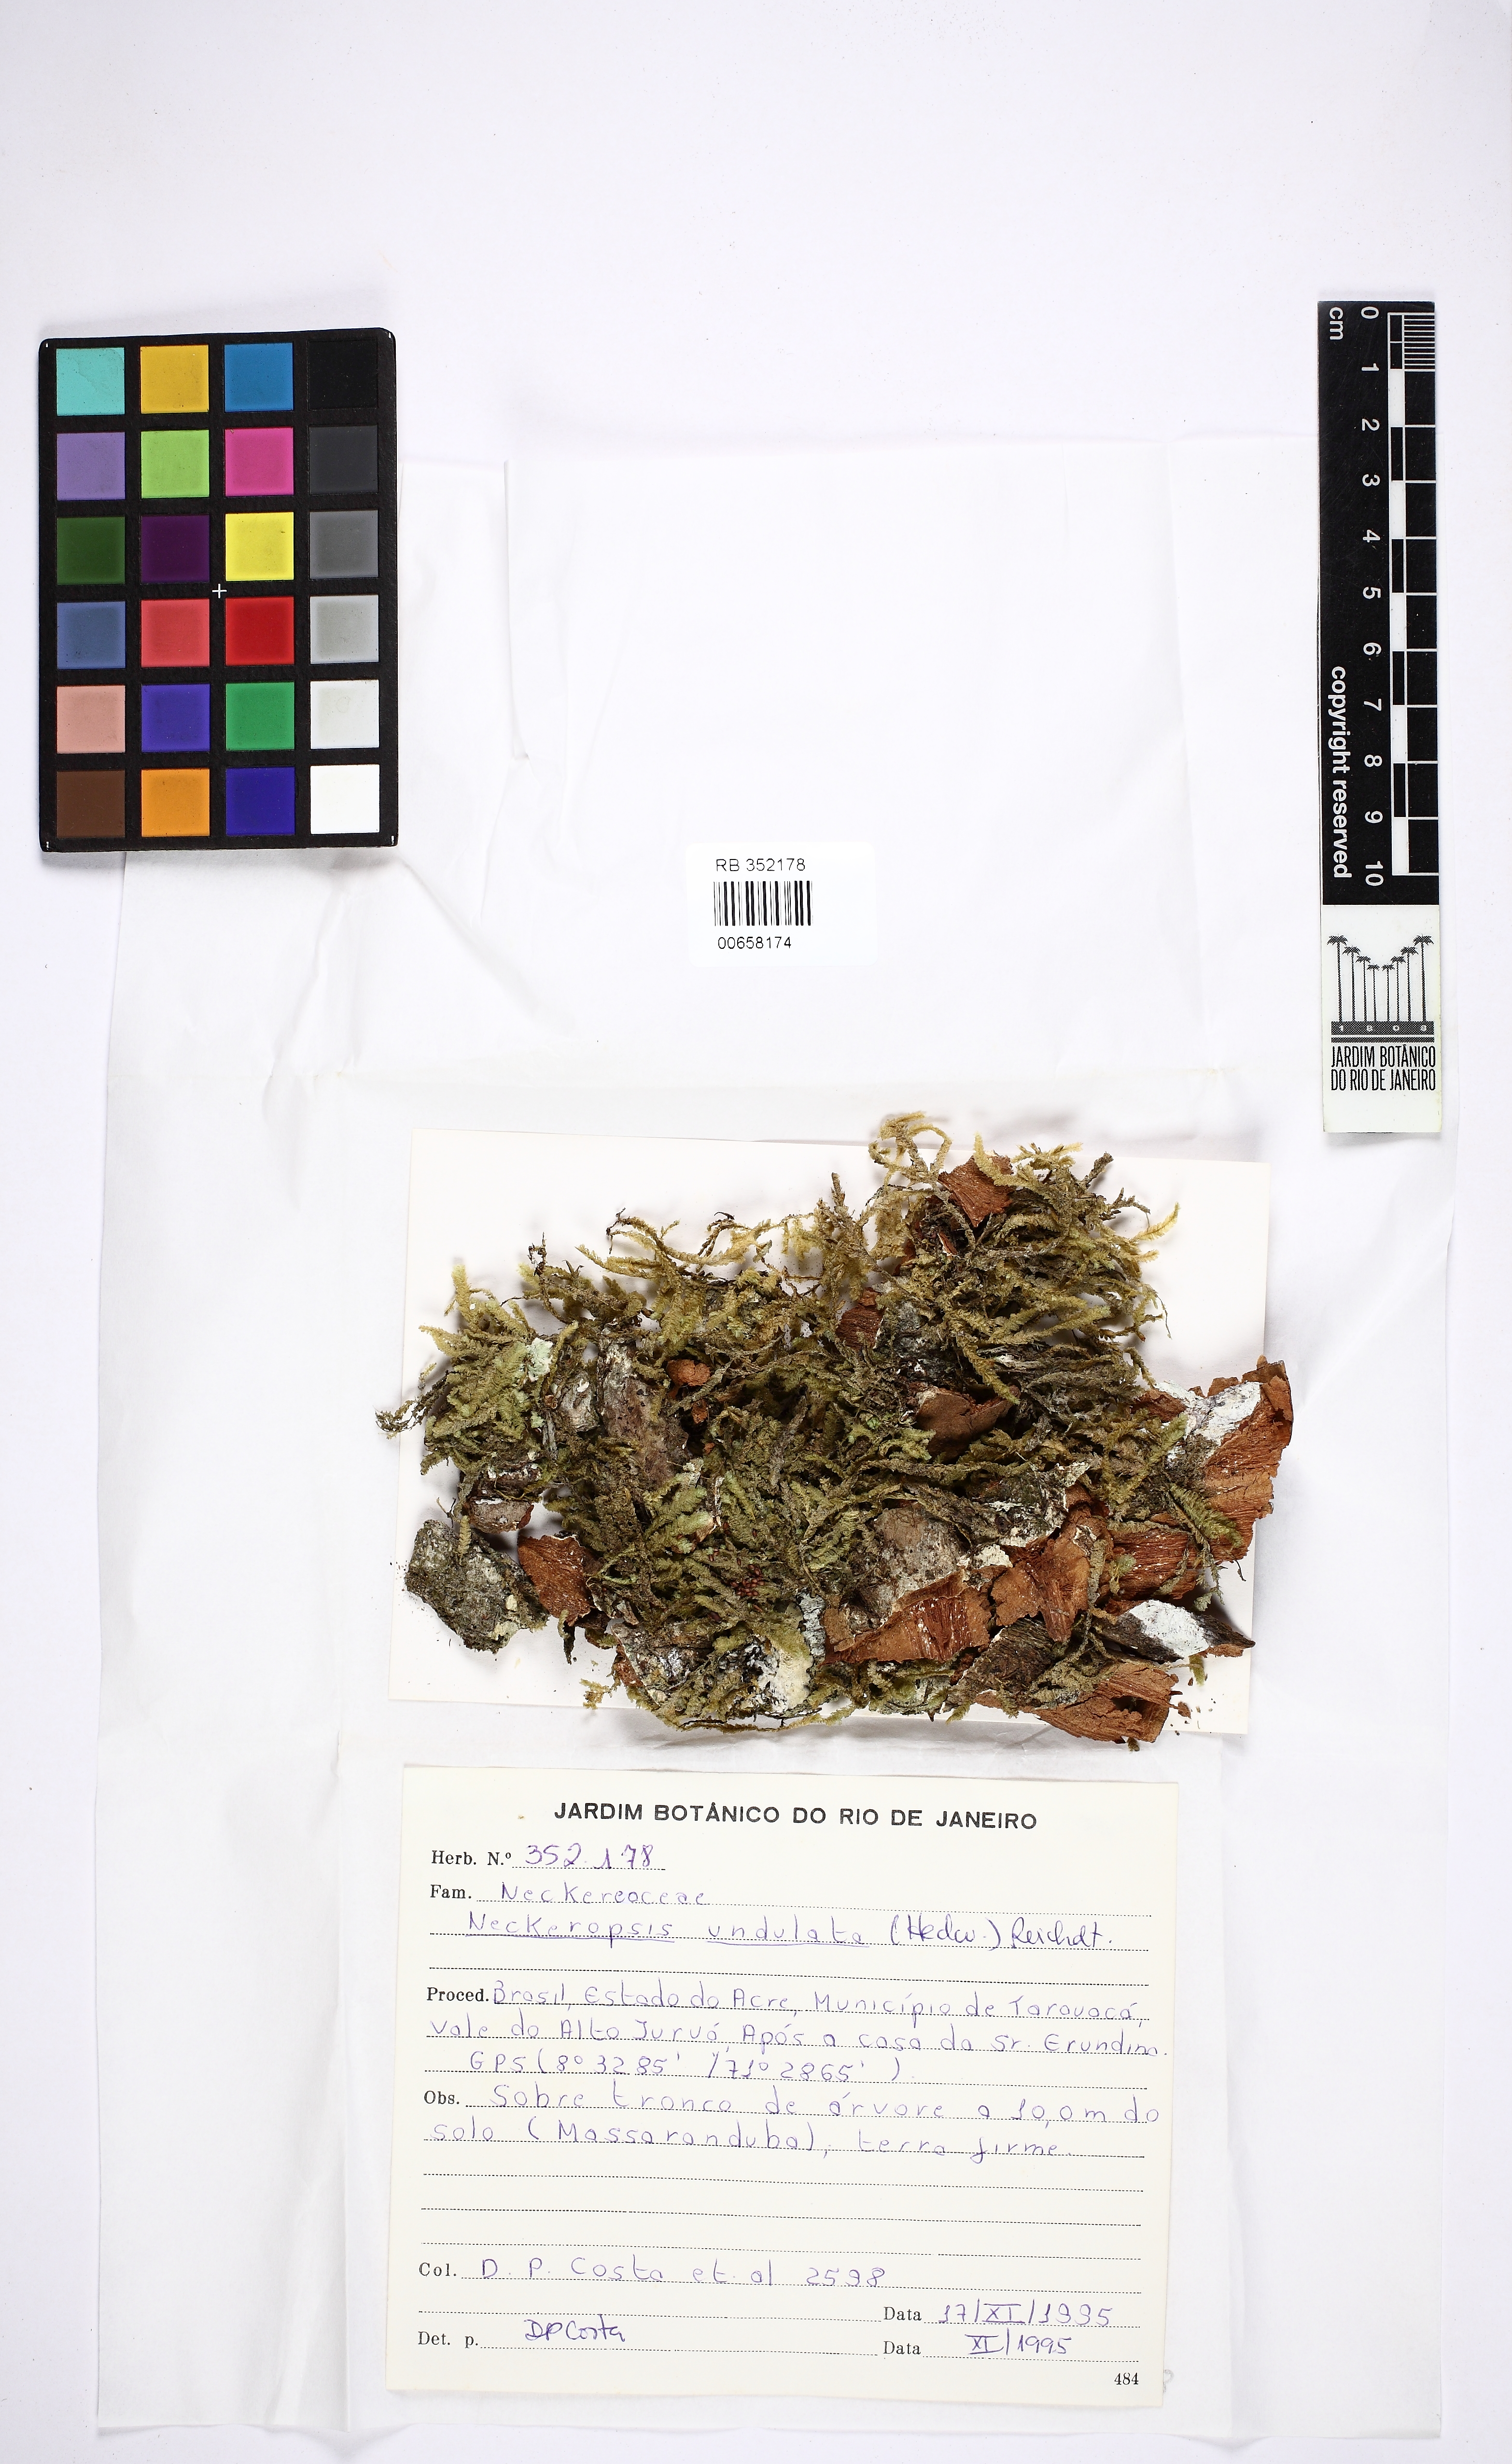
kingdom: Plantae
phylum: Bryophyta
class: Bryopsida
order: Hypnales
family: Neckeraceae
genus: Neckeropsis
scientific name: Neckeropsis undulata
